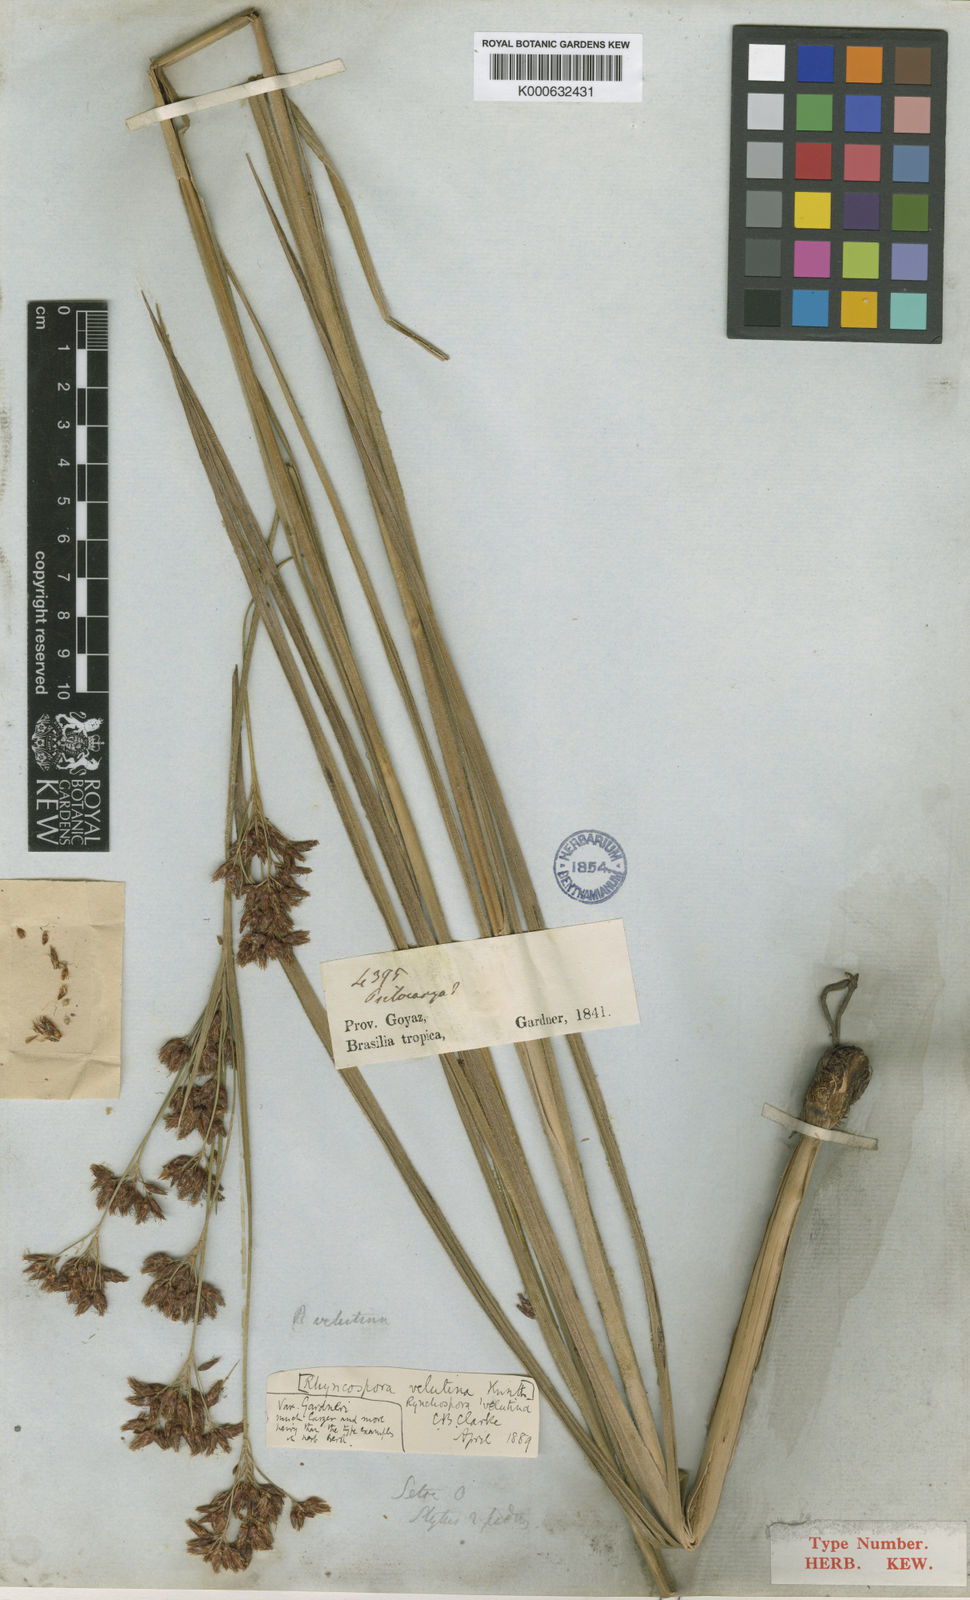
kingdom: Plantae
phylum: Tracheophyta
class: Liliopsida
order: Poales
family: Cyperaceae
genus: Rhynchospora
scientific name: Rhynchospora velutina
